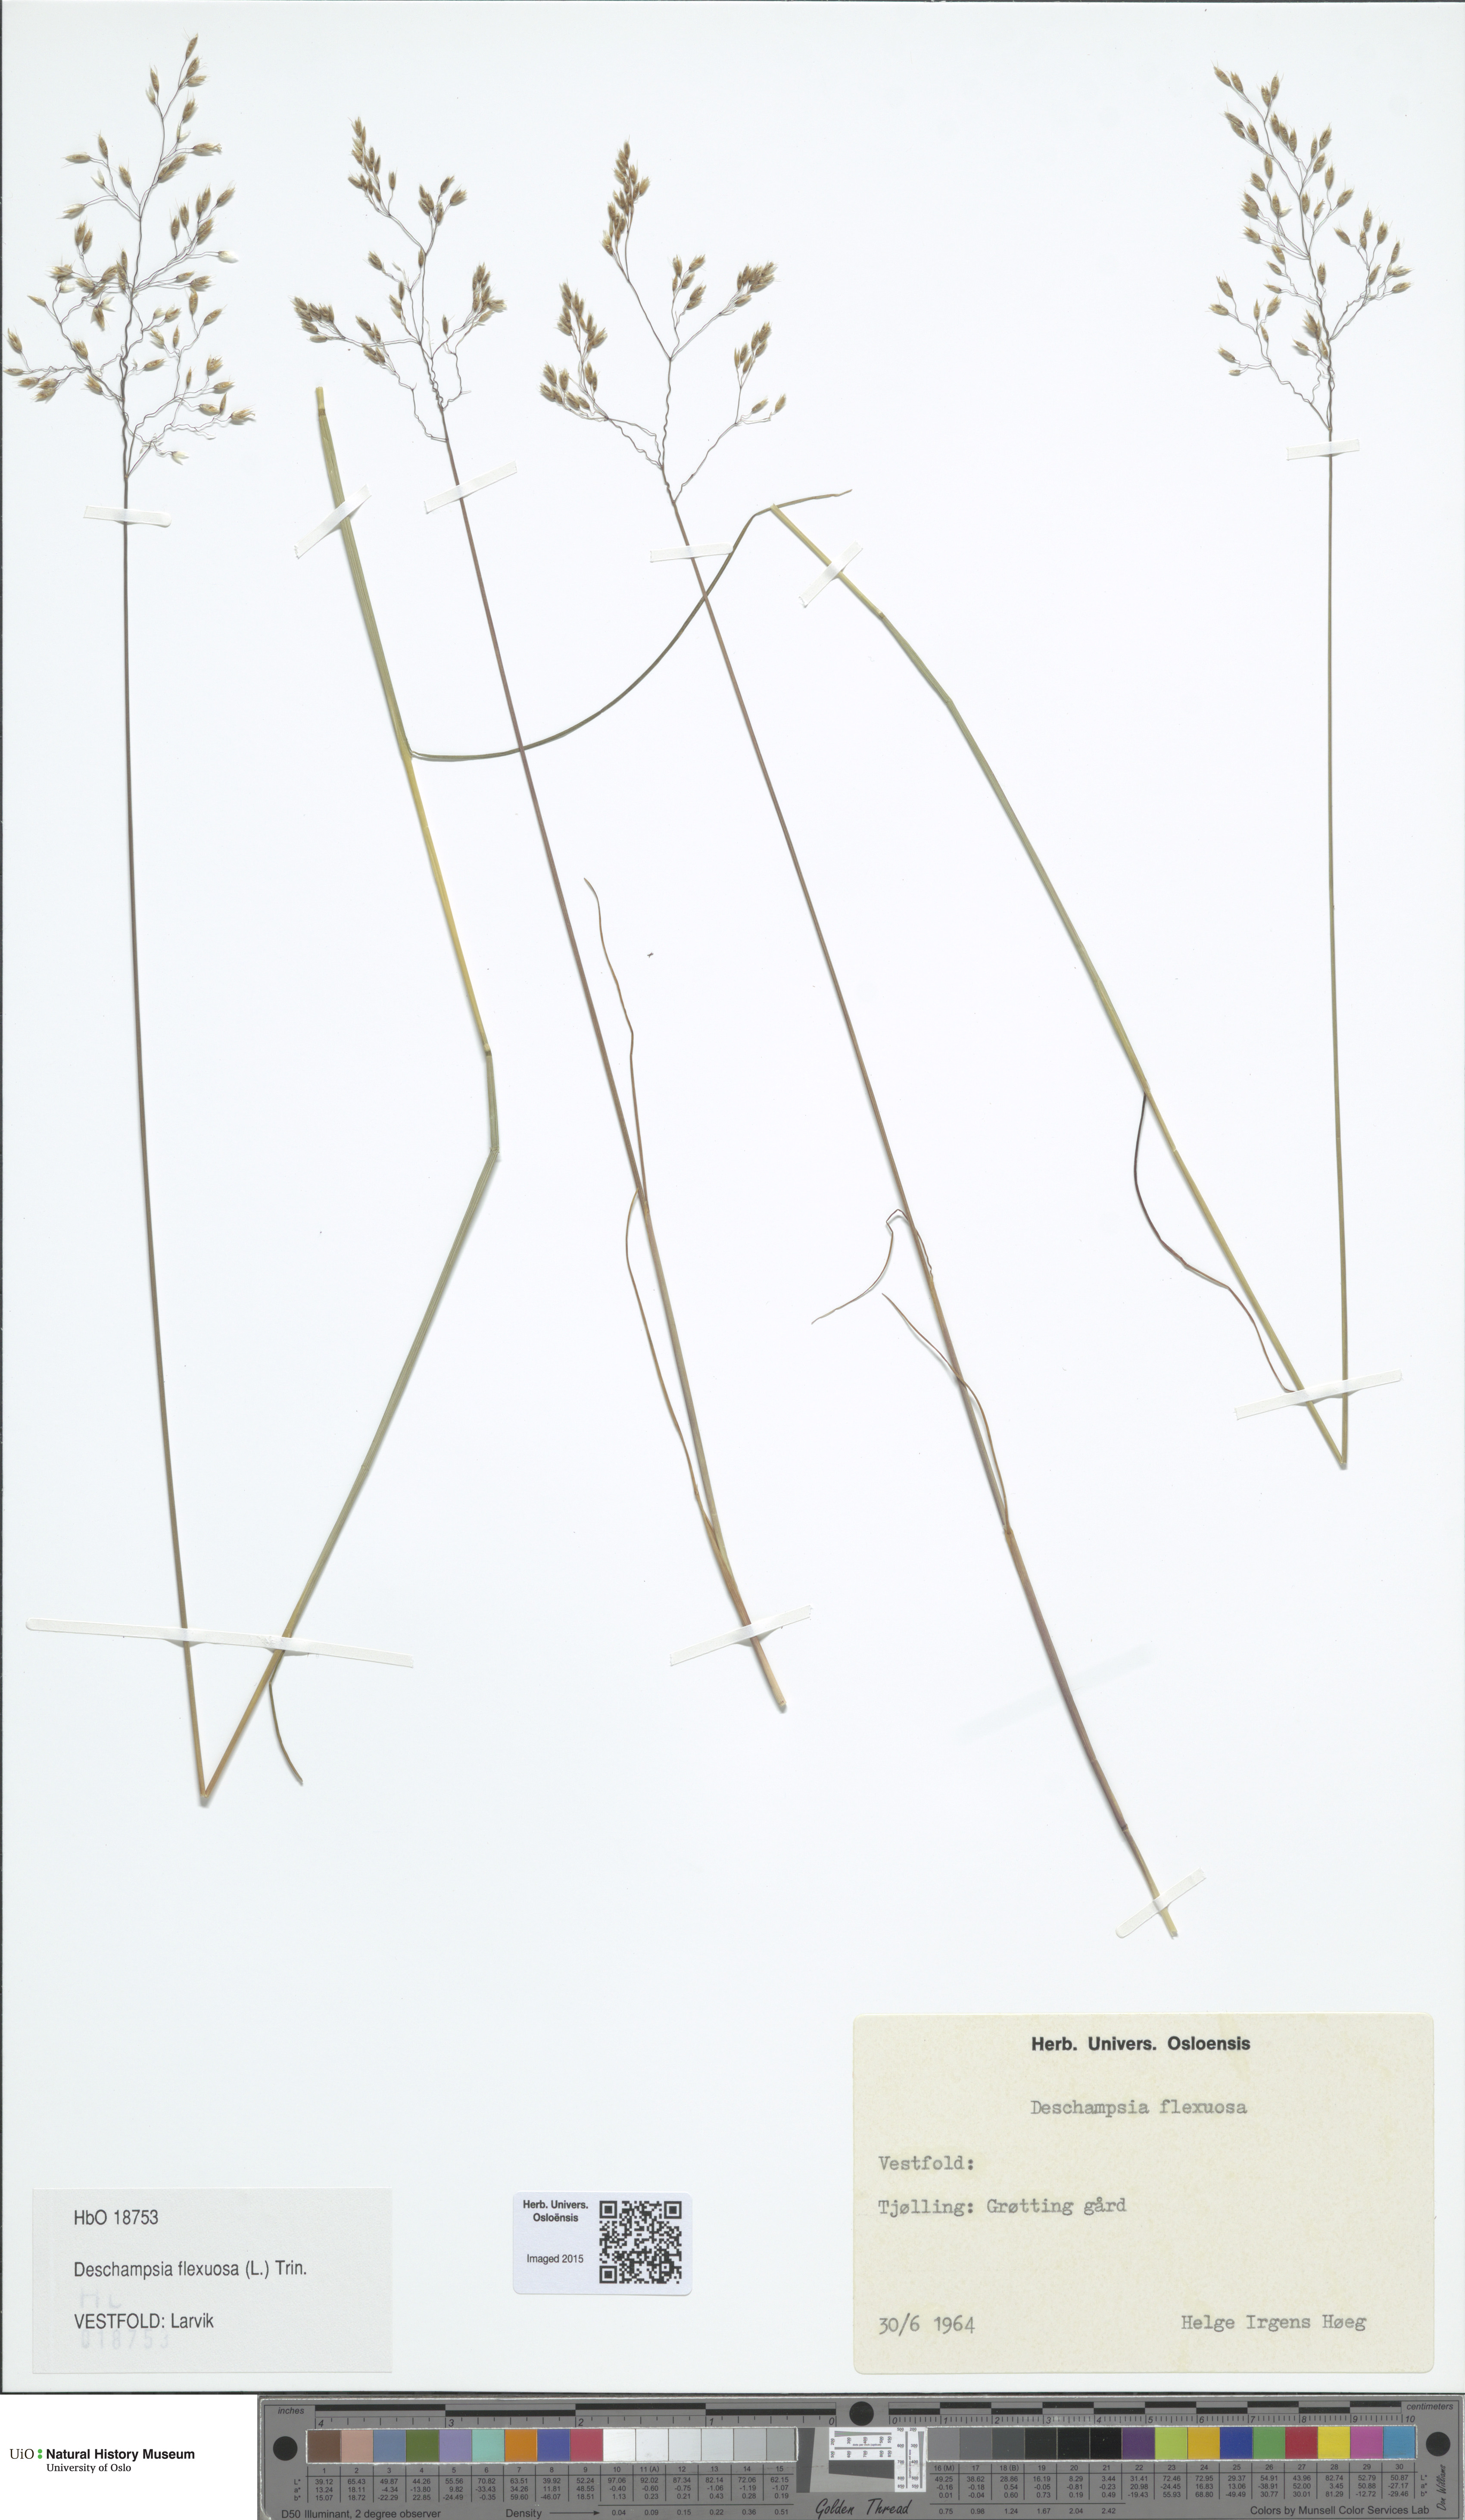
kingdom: Plantae
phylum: Tracheophyta
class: Liliopsida
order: Poales
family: Poaceae
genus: Avenella
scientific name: Avenella flexuosa
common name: Wavy hairgrass
